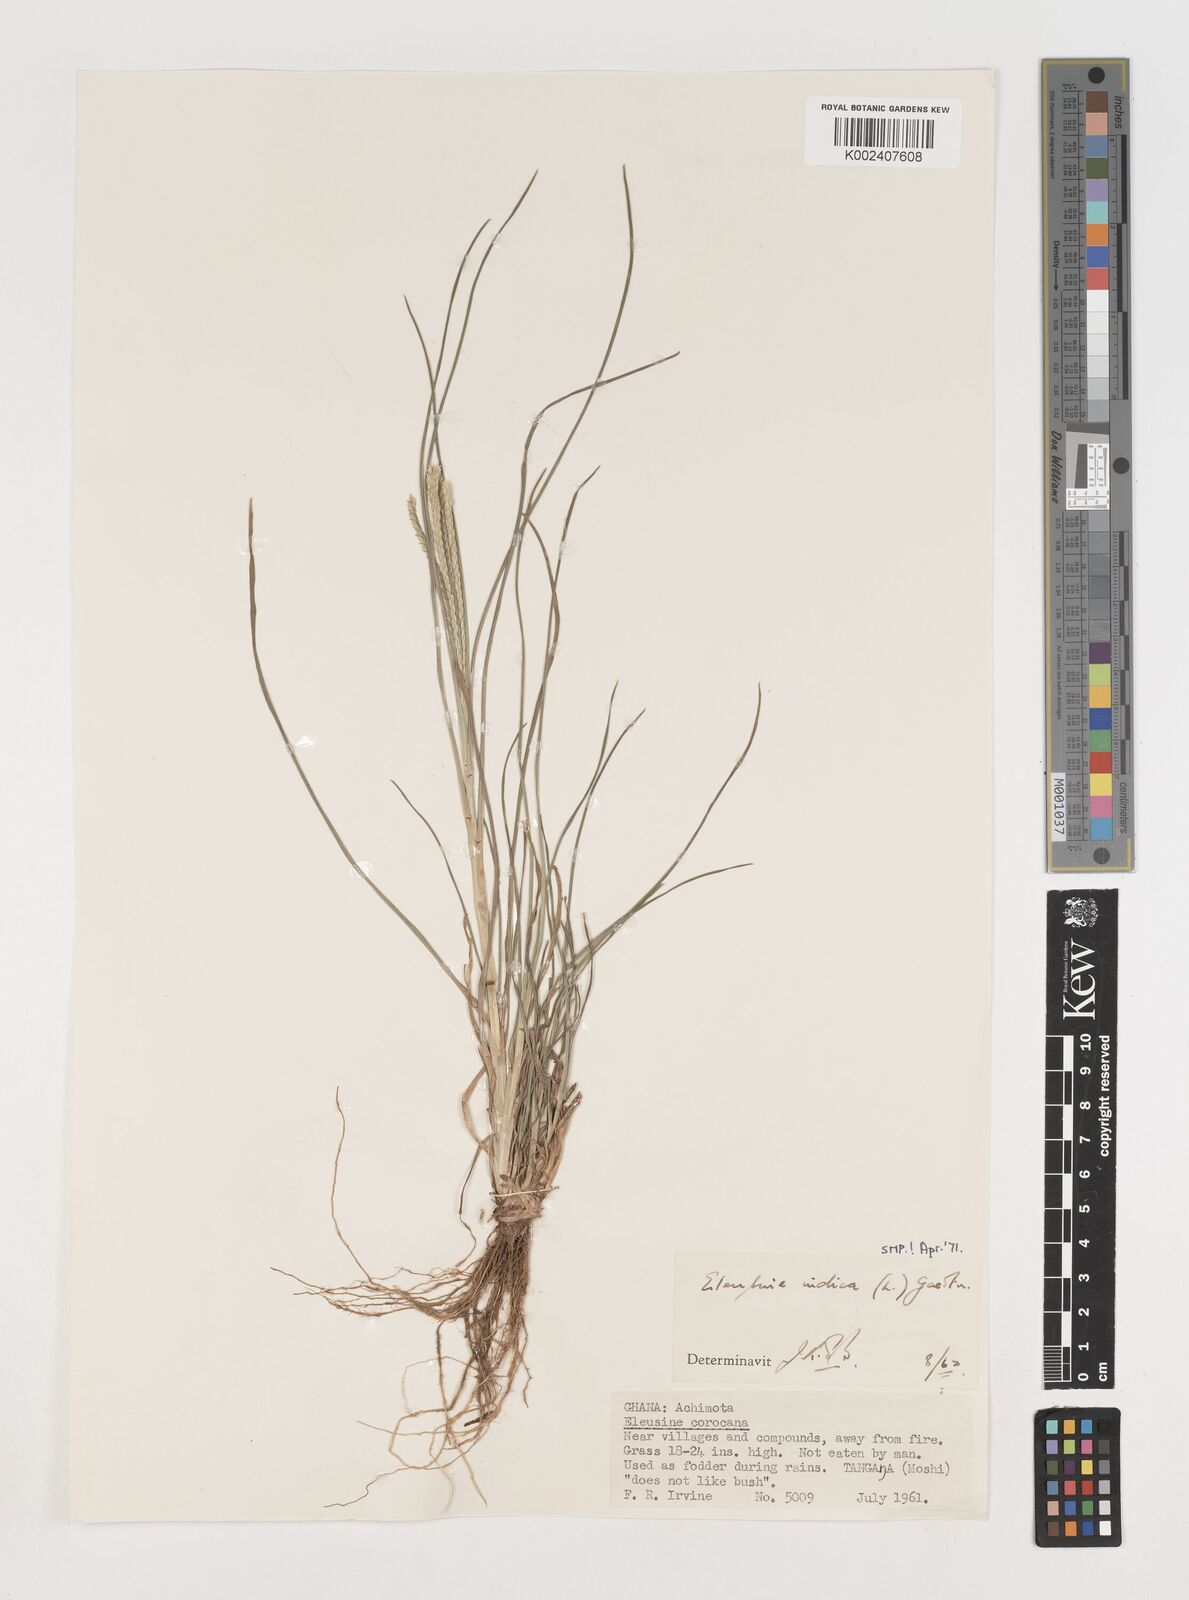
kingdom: Plantae
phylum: Tracheophyta
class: Liliopsida
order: Poales
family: Poaceae
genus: Eleusine
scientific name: Eleusine indica
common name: Yard-grass
